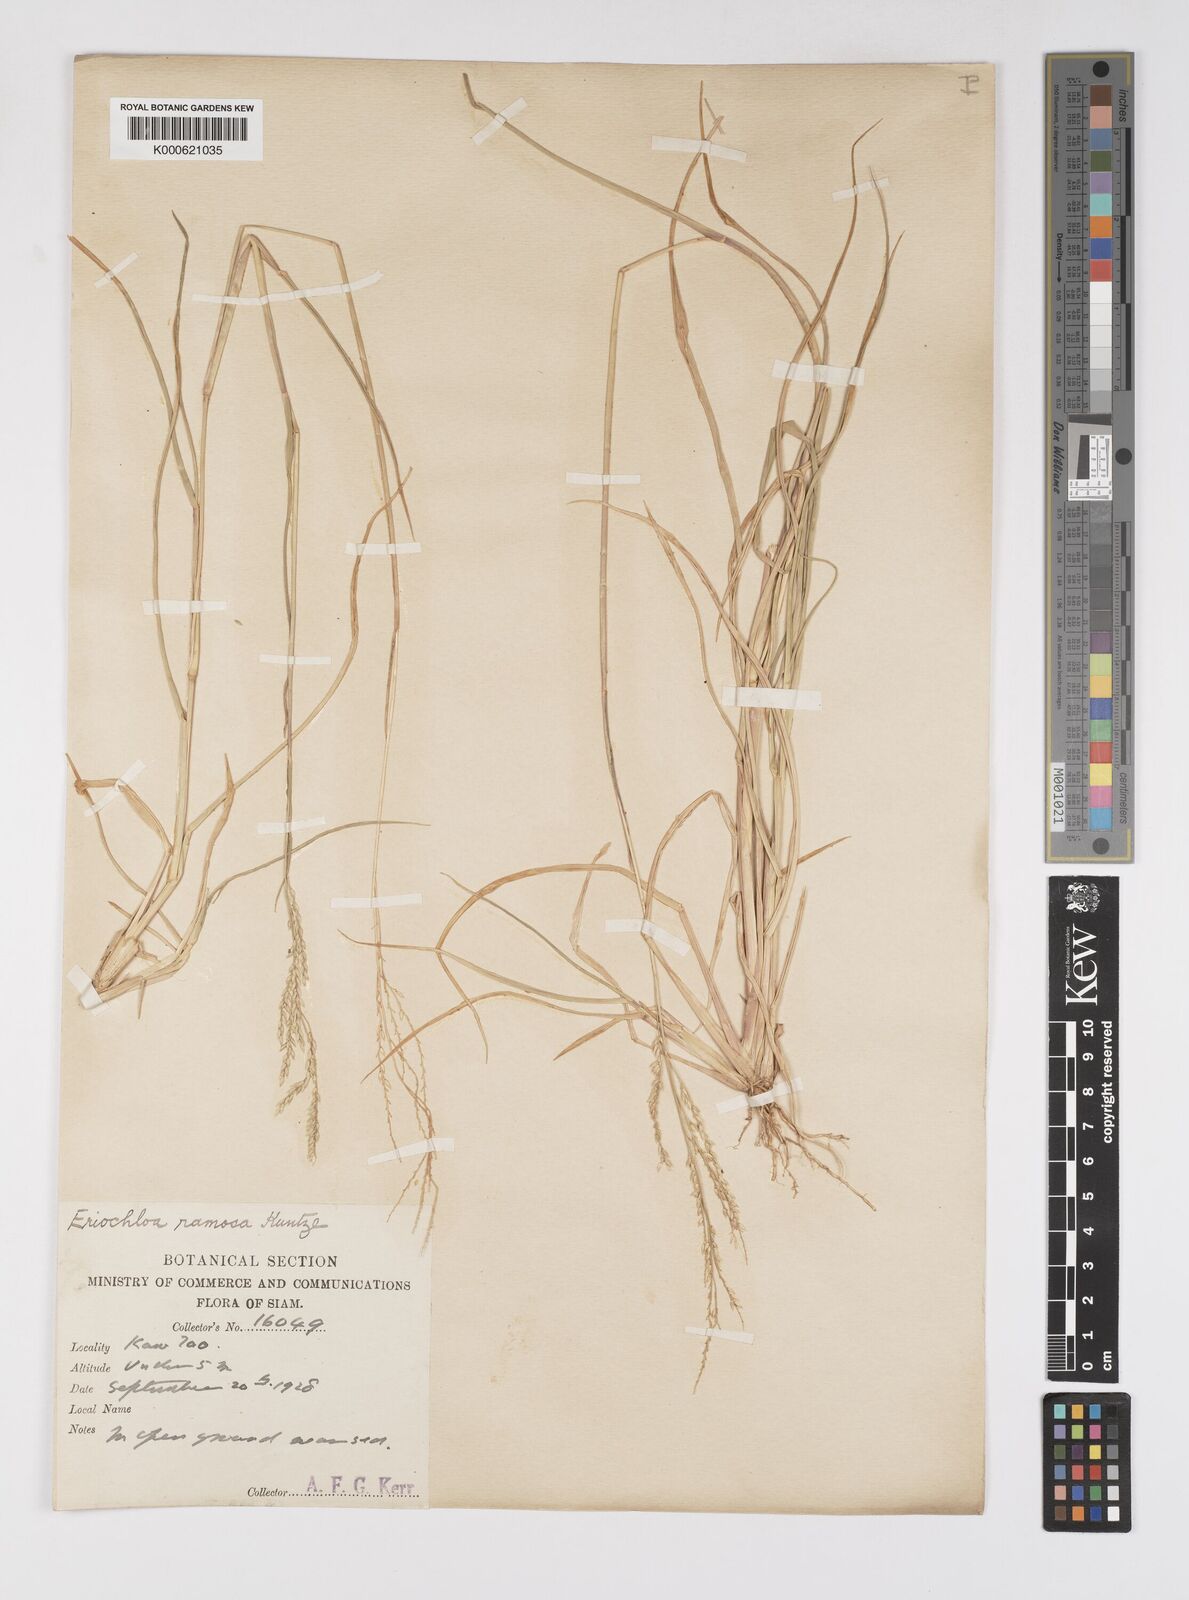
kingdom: Plantae
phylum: Tracheophyta
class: Liliopsida
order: Poales
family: Poaceae
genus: Eriochloa
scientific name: Eriochloa procera
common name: Spring grass
